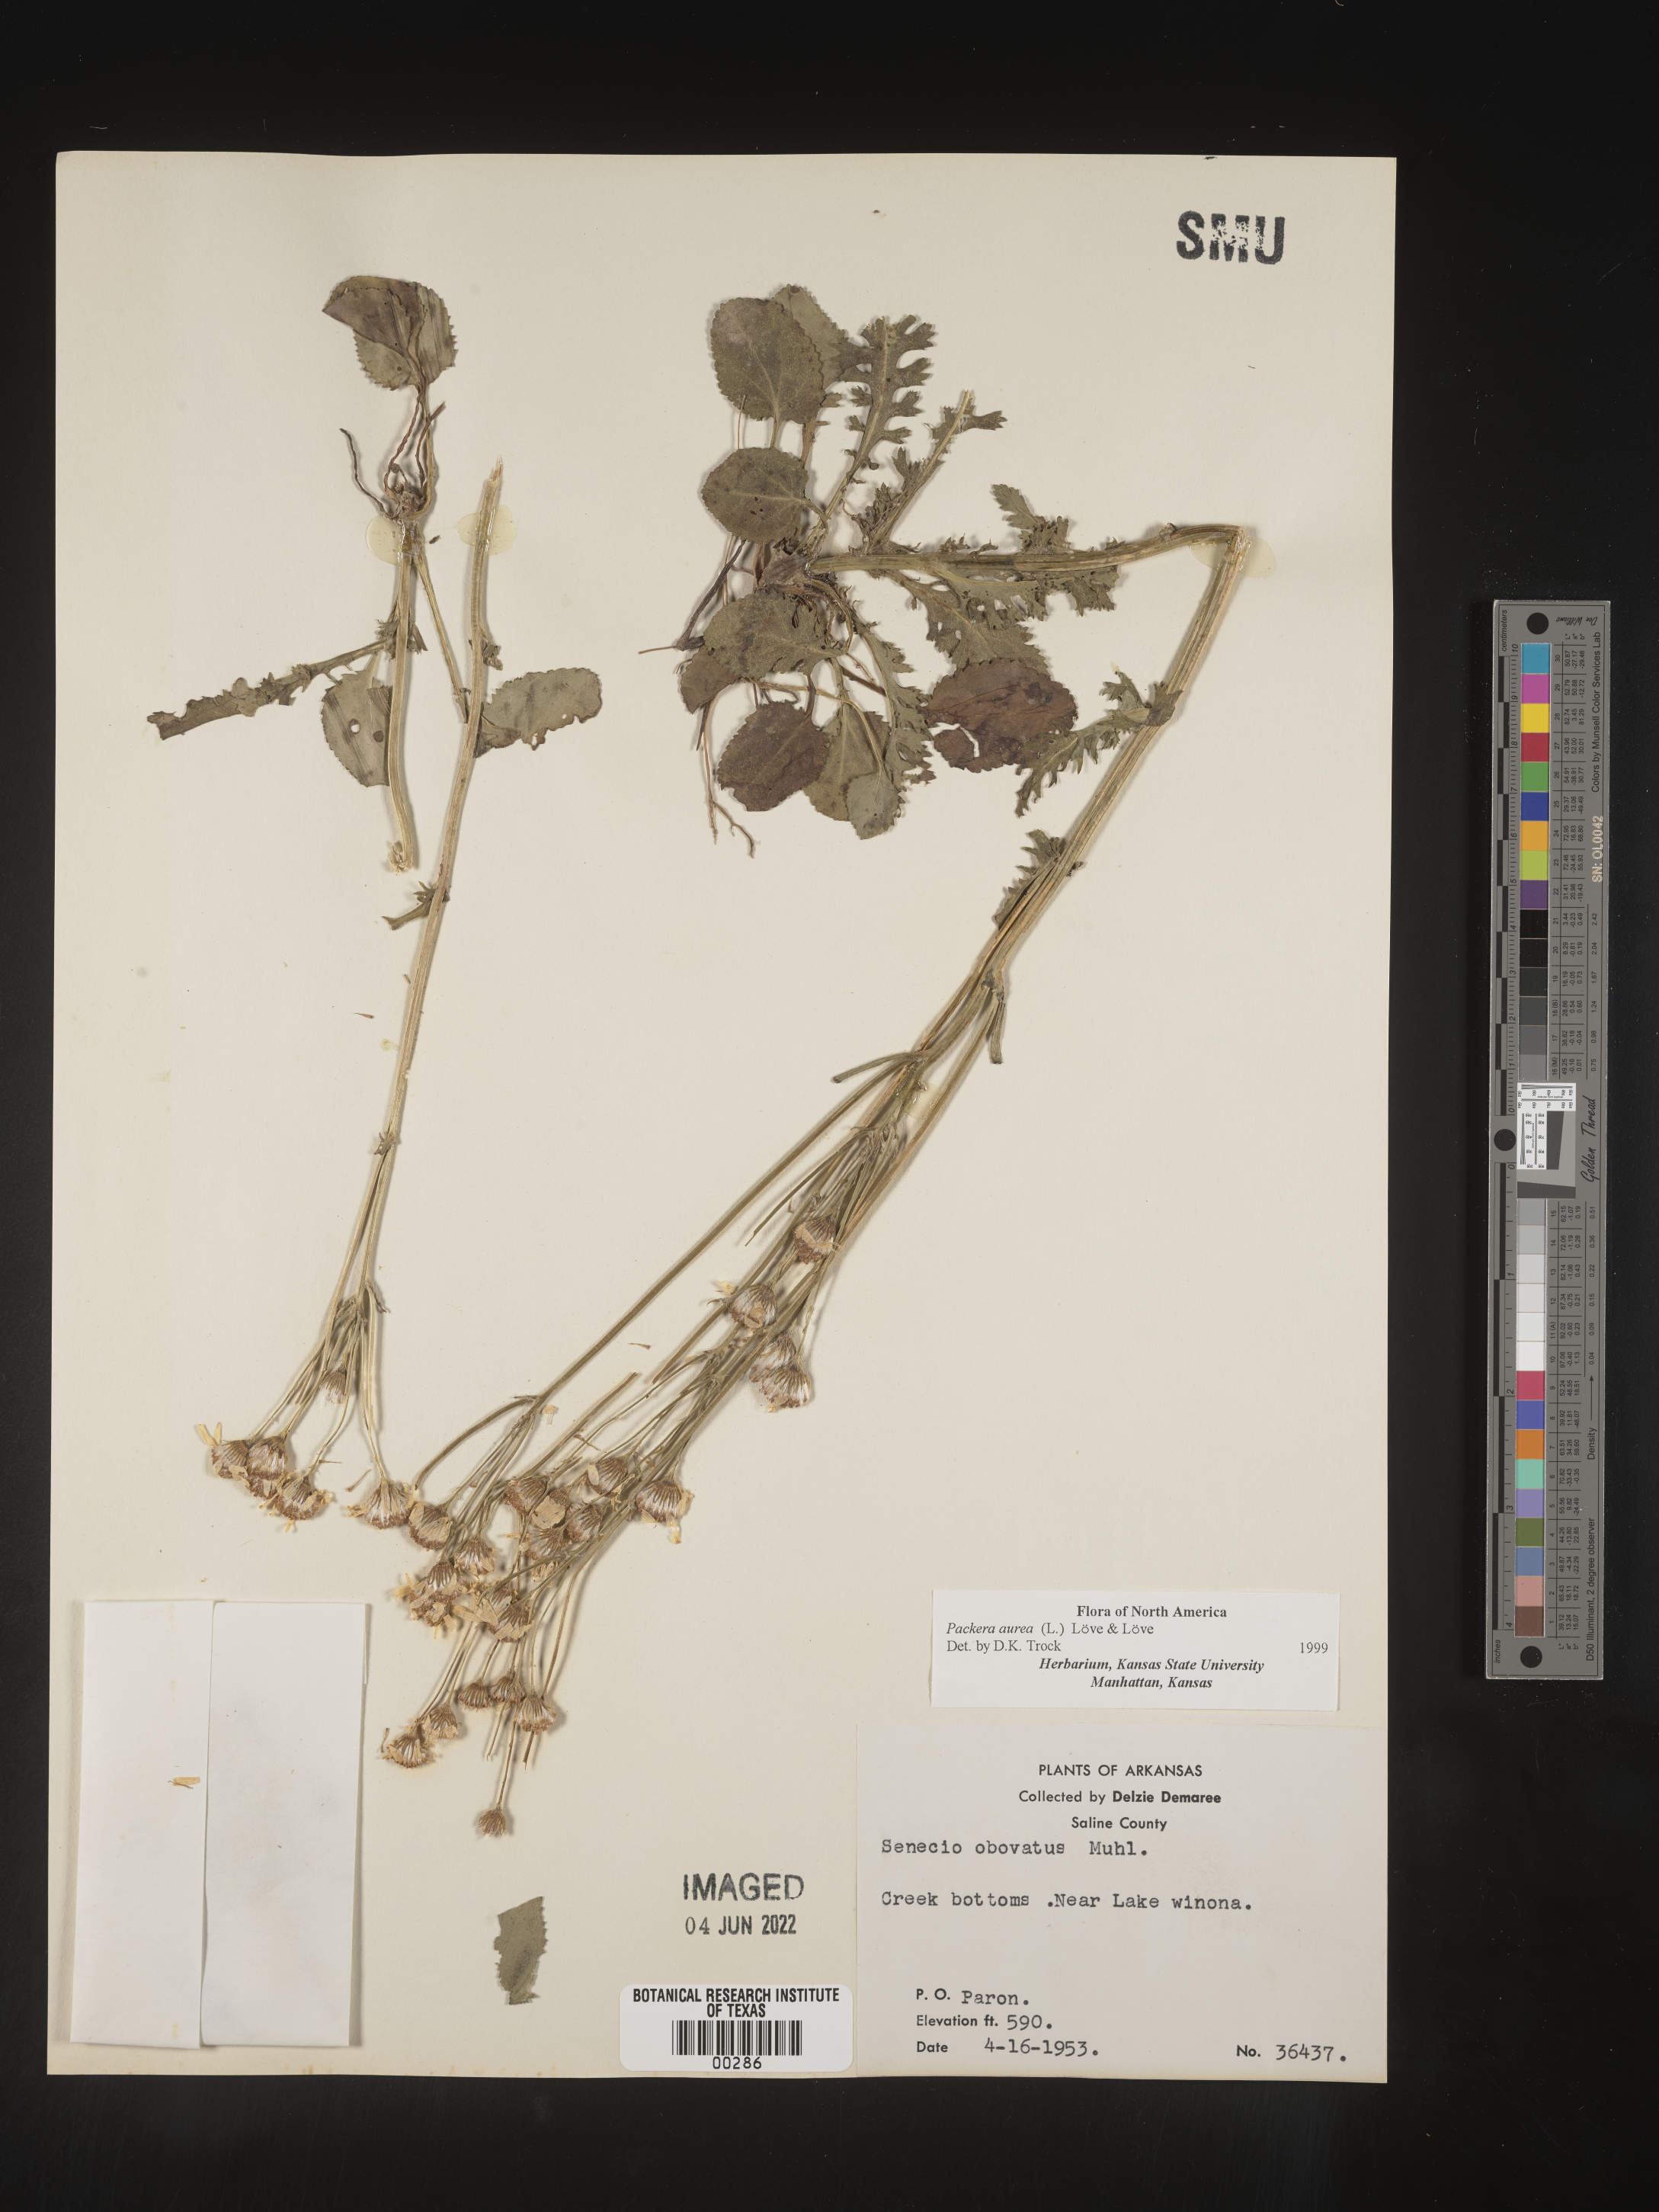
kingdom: Plantae
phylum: Tracheophyta
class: Magnoliopsida
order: Asterales
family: Asteraceae
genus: Packera
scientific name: Packera aurea
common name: Golden groundsel
